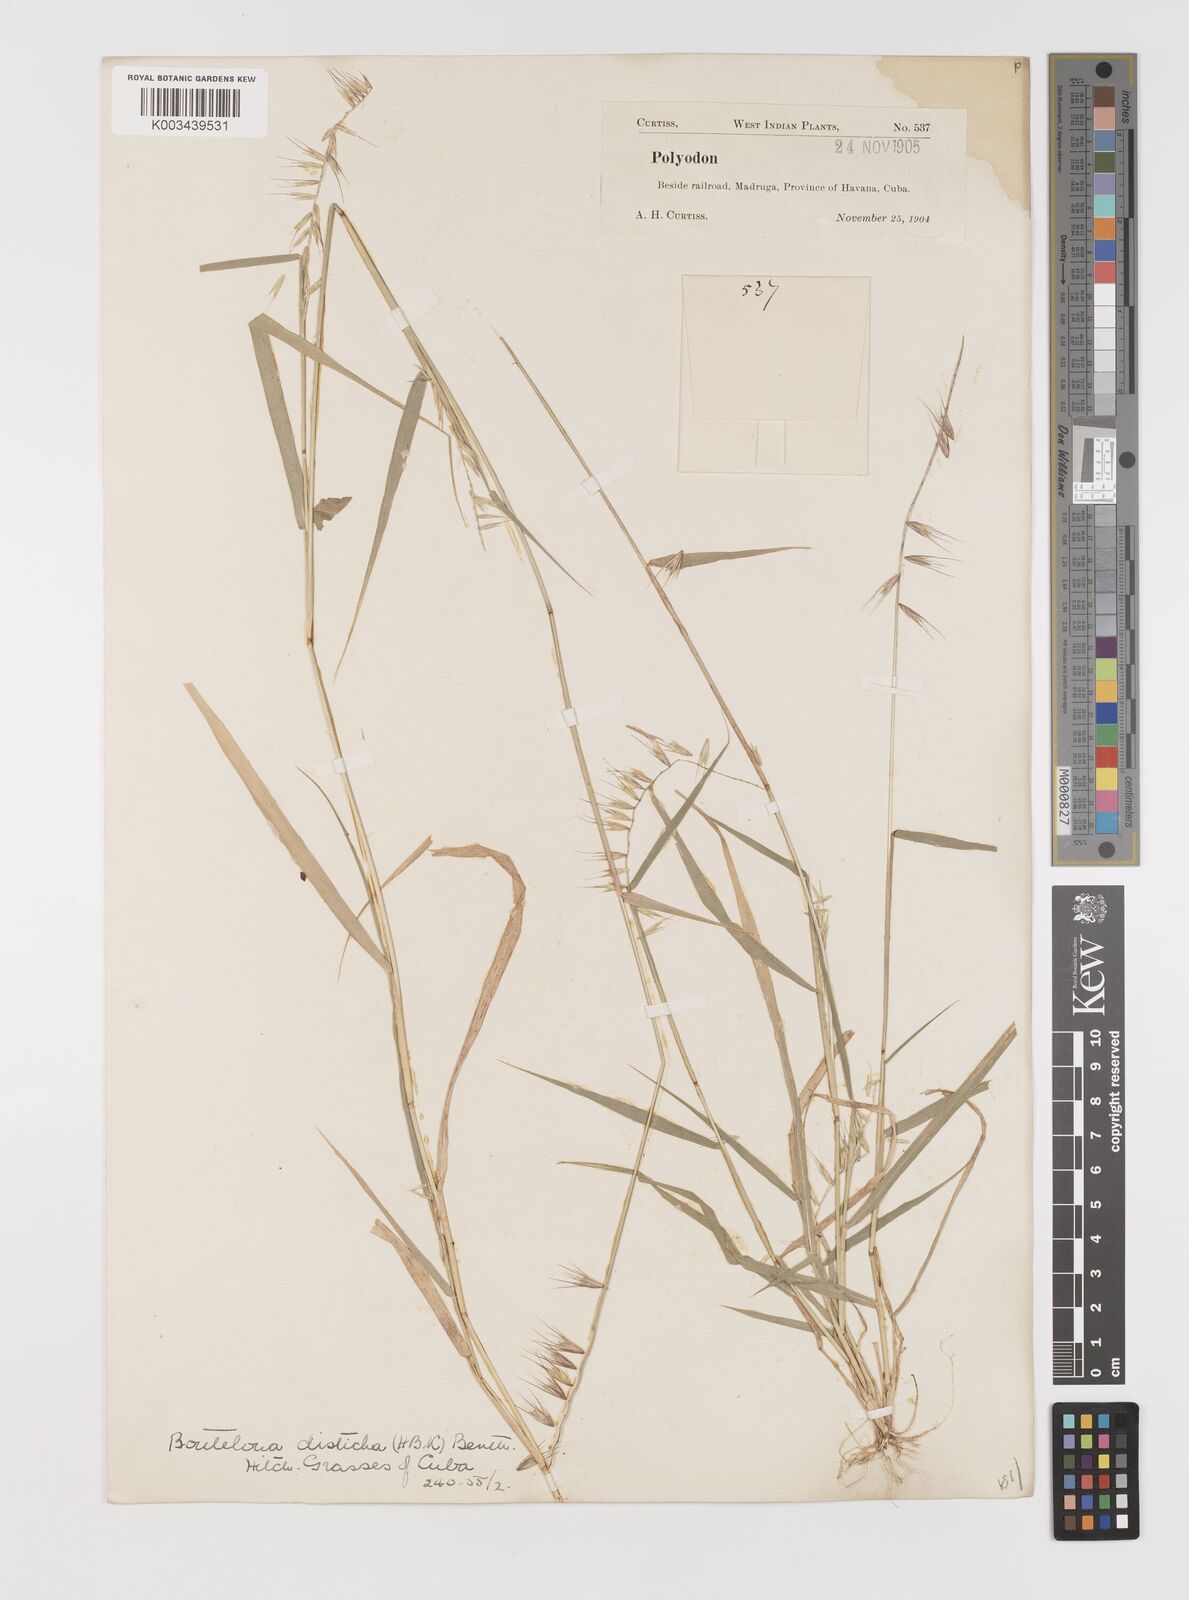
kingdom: Plantae
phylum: Tracheophyta
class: Liliopsida
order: Poales
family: Poaceae
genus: Bouteloua
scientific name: Bouteloua disticha
